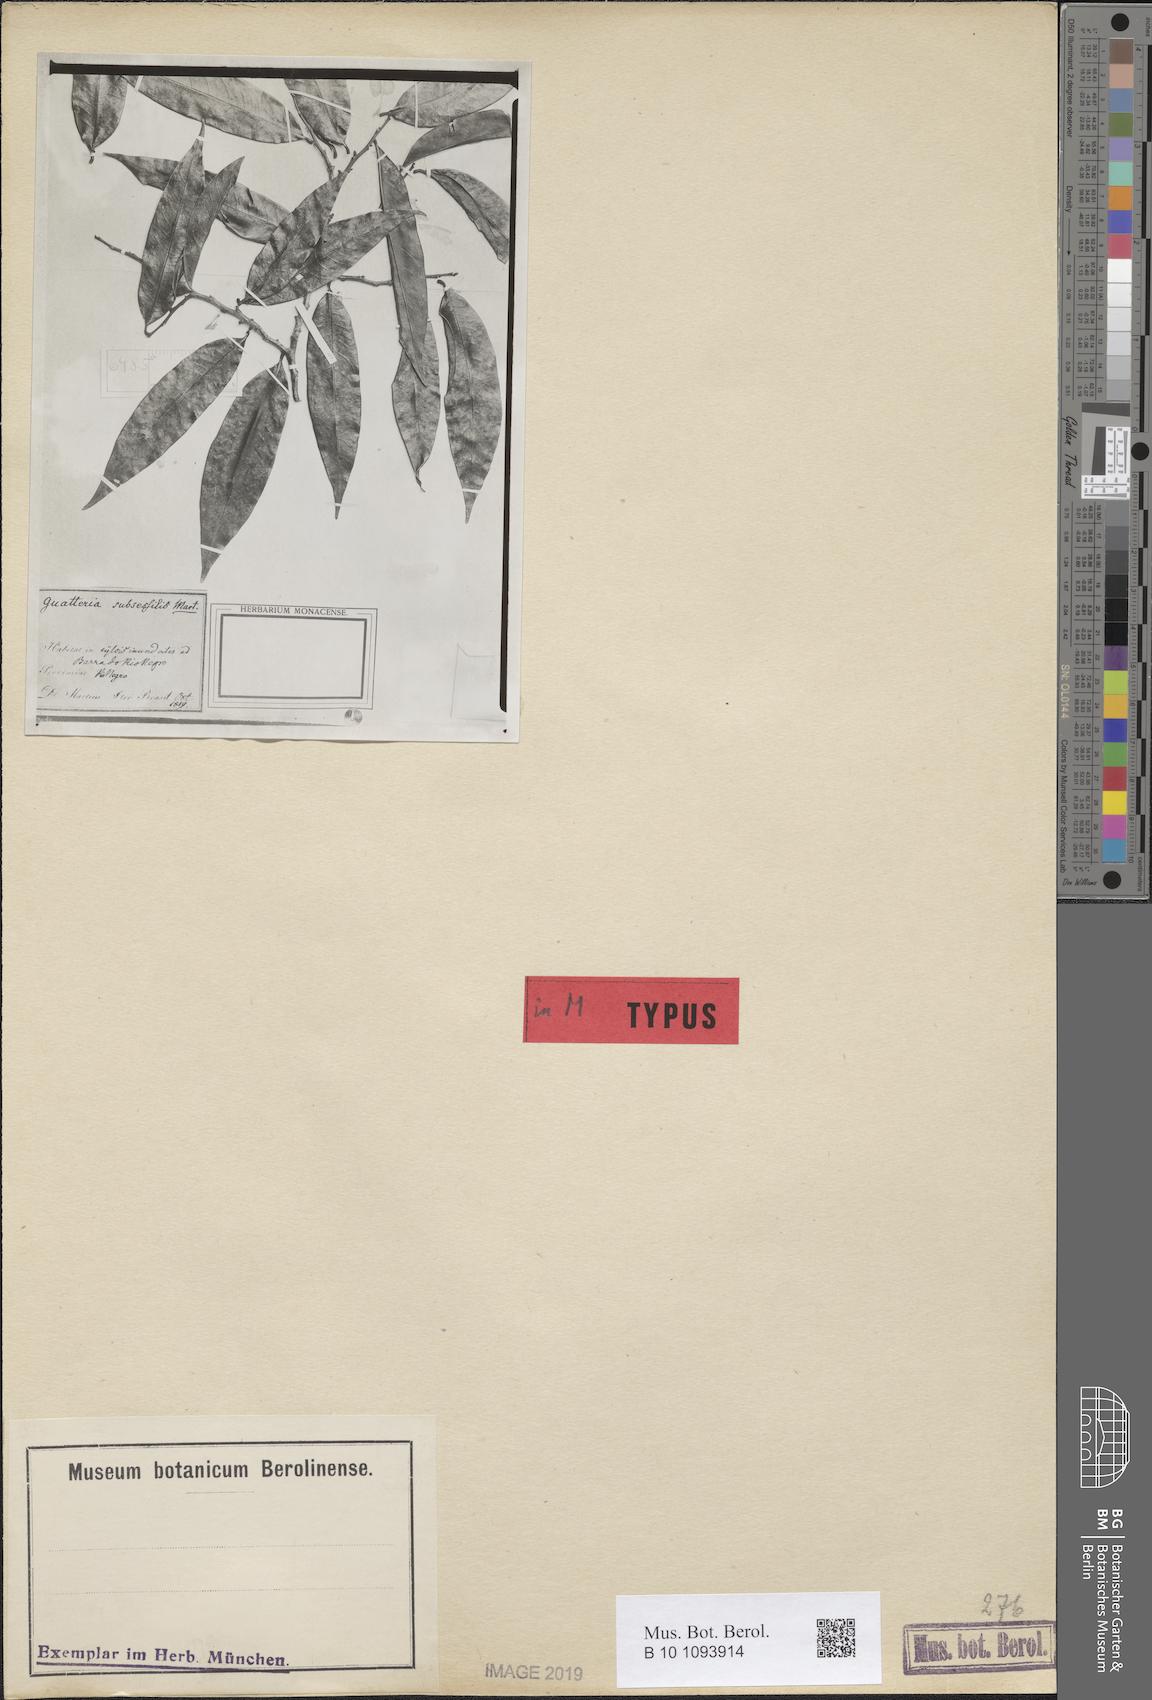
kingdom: Plantae
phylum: Tracheophyta
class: Magnoliopsida
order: Magnoliales
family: Annonaceae
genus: Guatteria
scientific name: Guatteria subsessilis
